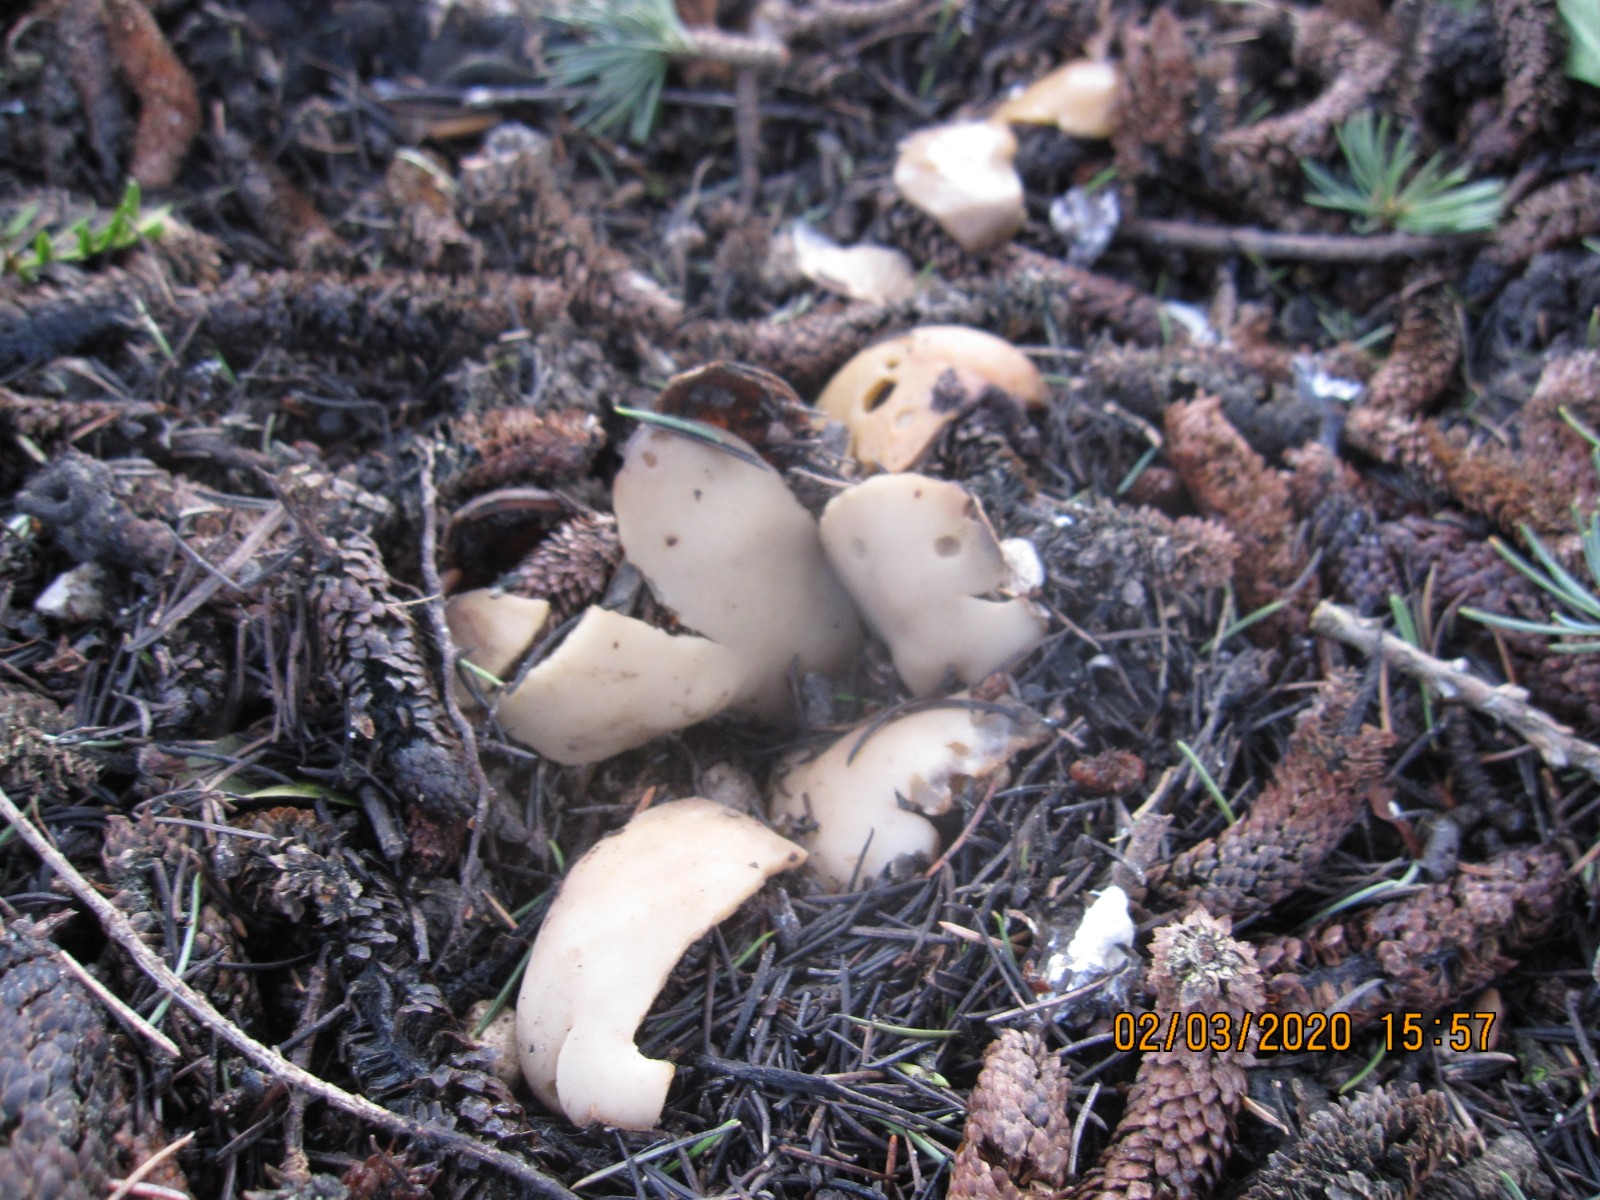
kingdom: Fungi
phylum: Ascomycota
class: Pezizomycetes
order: Pezizales
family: Pyronemataceae
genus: Geopora
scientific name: Geopora sumneriana
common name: vår-jordbæger
